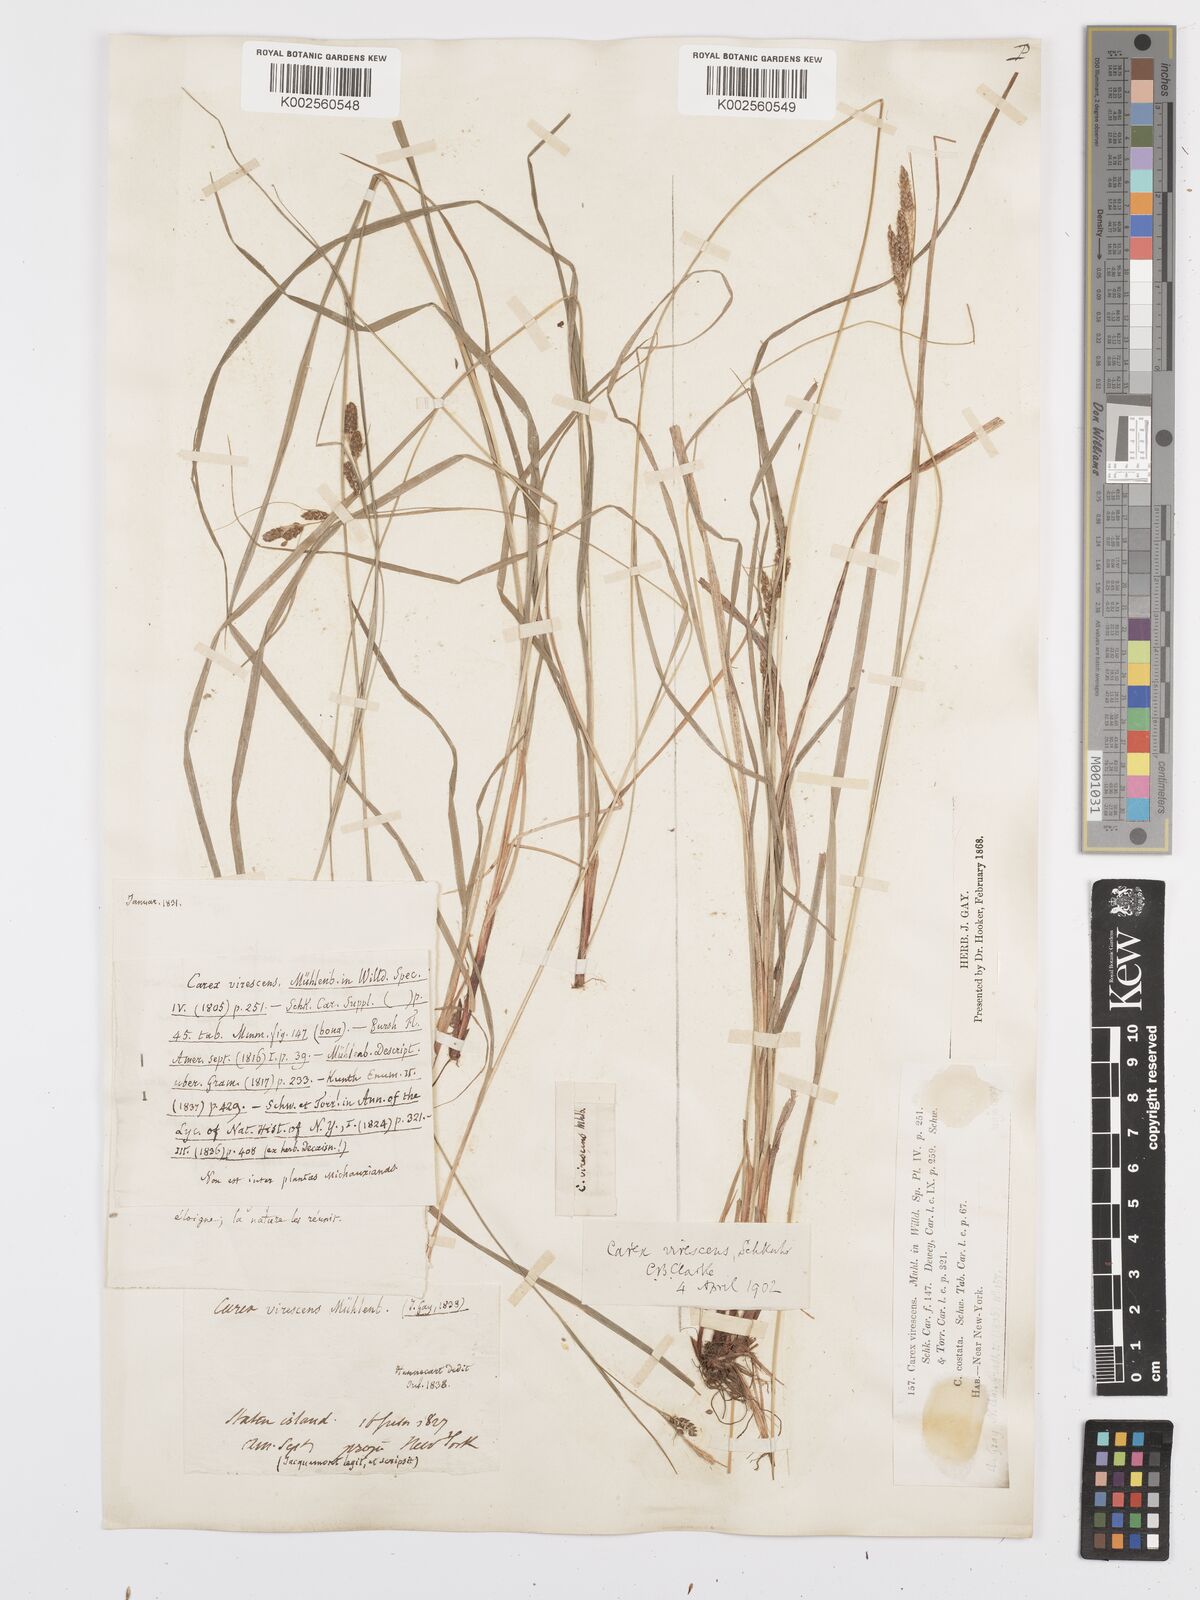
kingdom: Plantae
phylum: Tracheophyta
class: Liliopsida
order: Poales
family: Cyperaceae
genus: Carex
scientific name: Carex virescens
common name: Ribbed sedge
